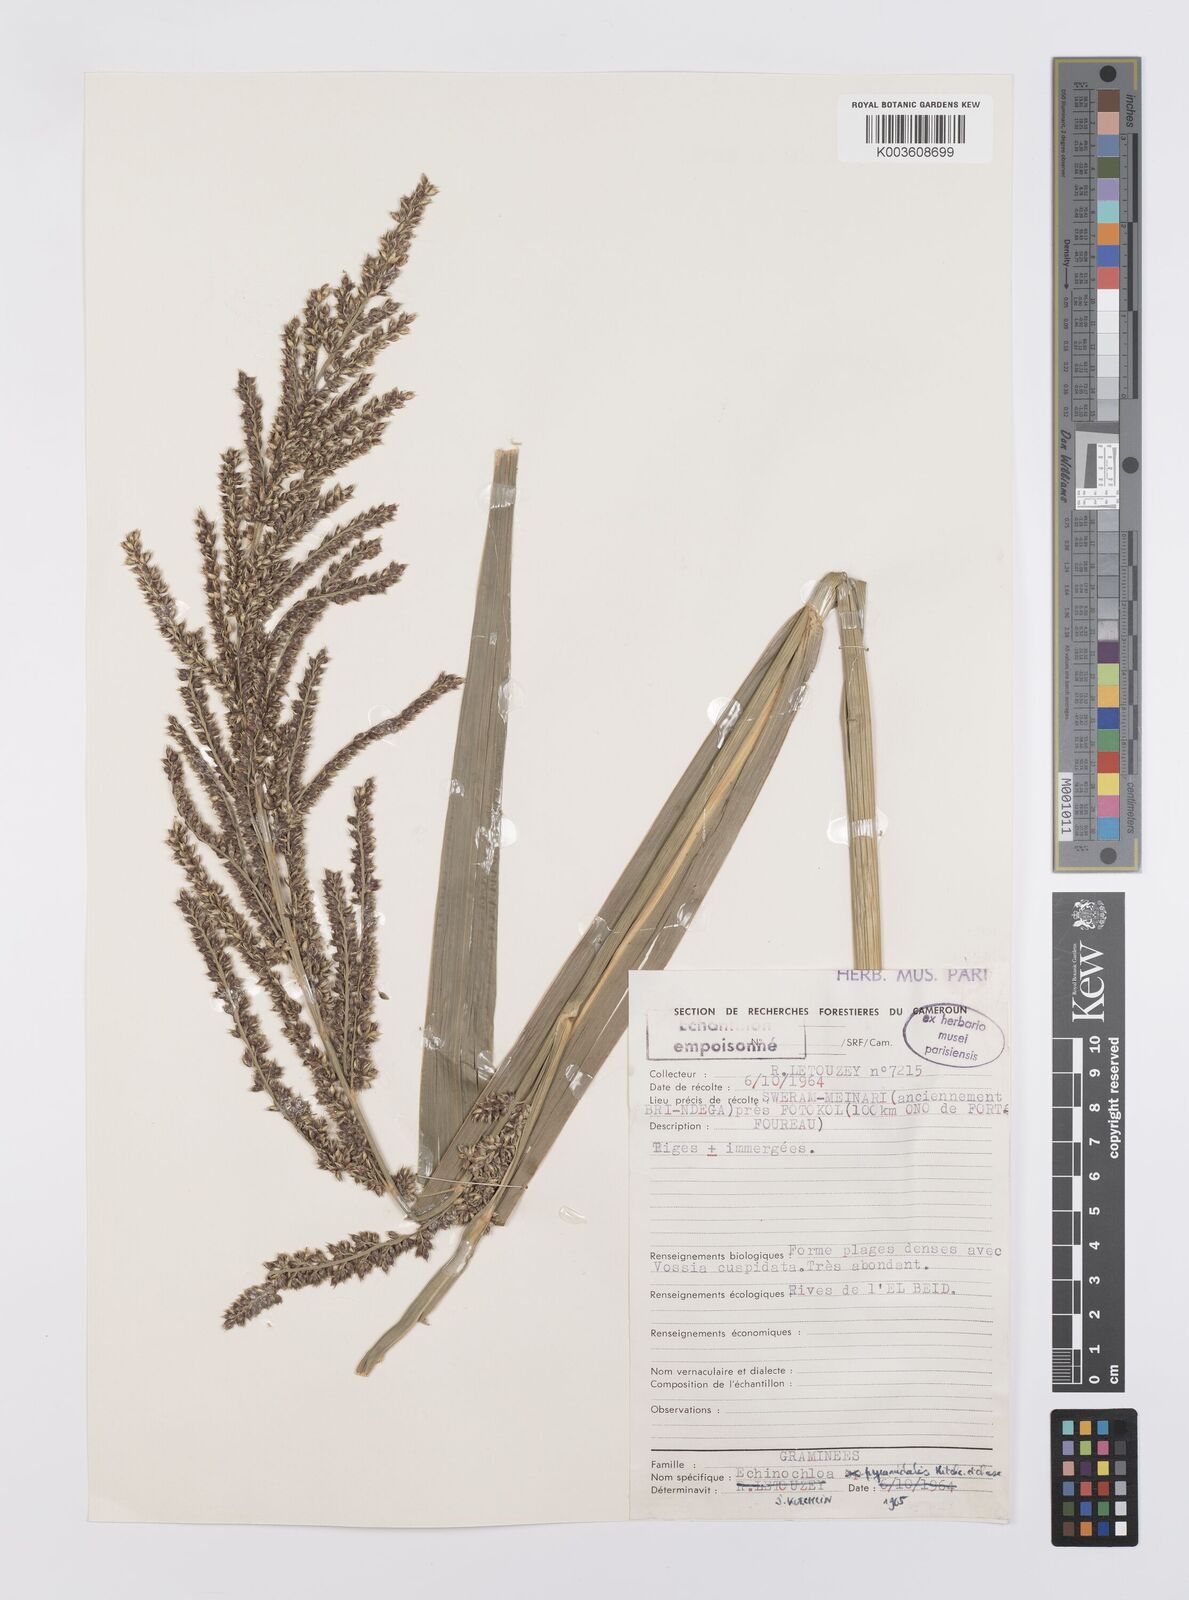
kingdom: Plantae
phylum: Tracheophyta
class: Liliopsida
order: Poales
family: Poaceae
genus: Echinochloa
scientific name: Echinochloa pyramidalis
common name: Antelope grass
